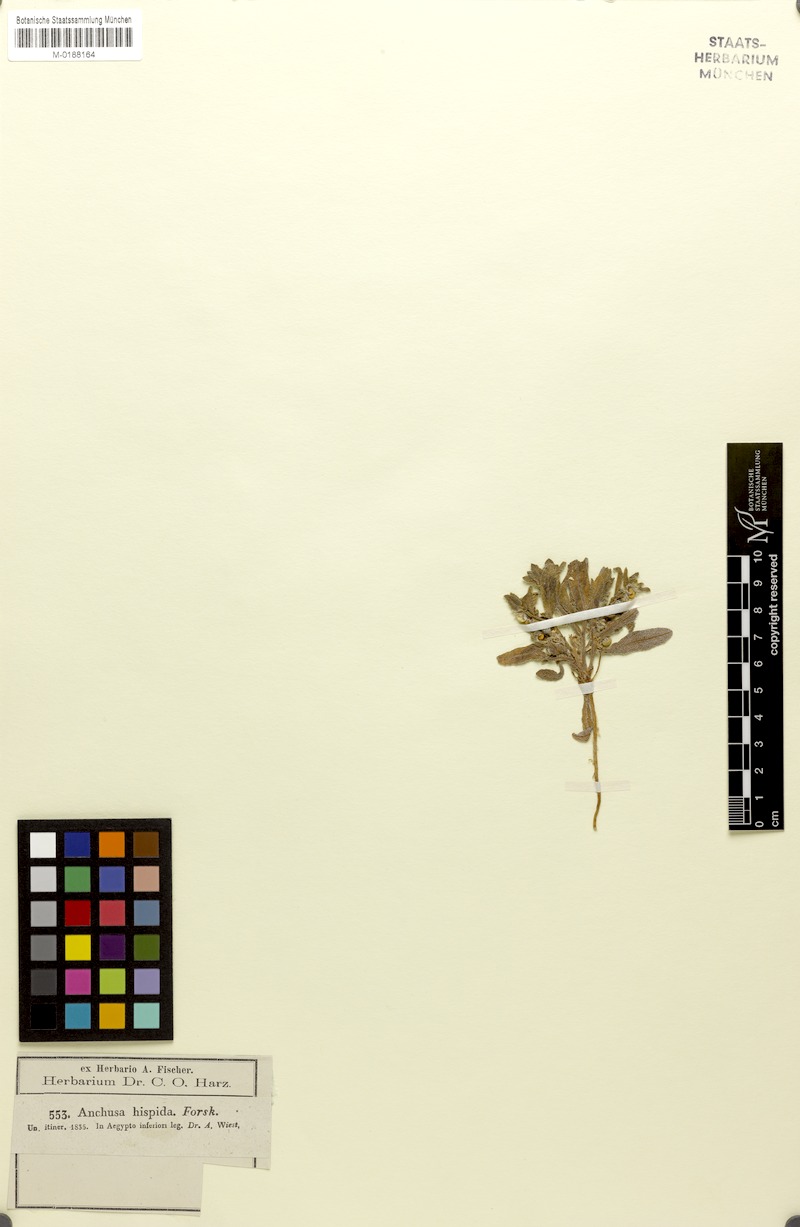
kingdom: Plantae
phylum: Tracheophyta
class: Magnoliopsida
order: Boraginales
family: Boraginaceae
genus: Gastrocotyle
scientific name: Gastrocotyle hispida
